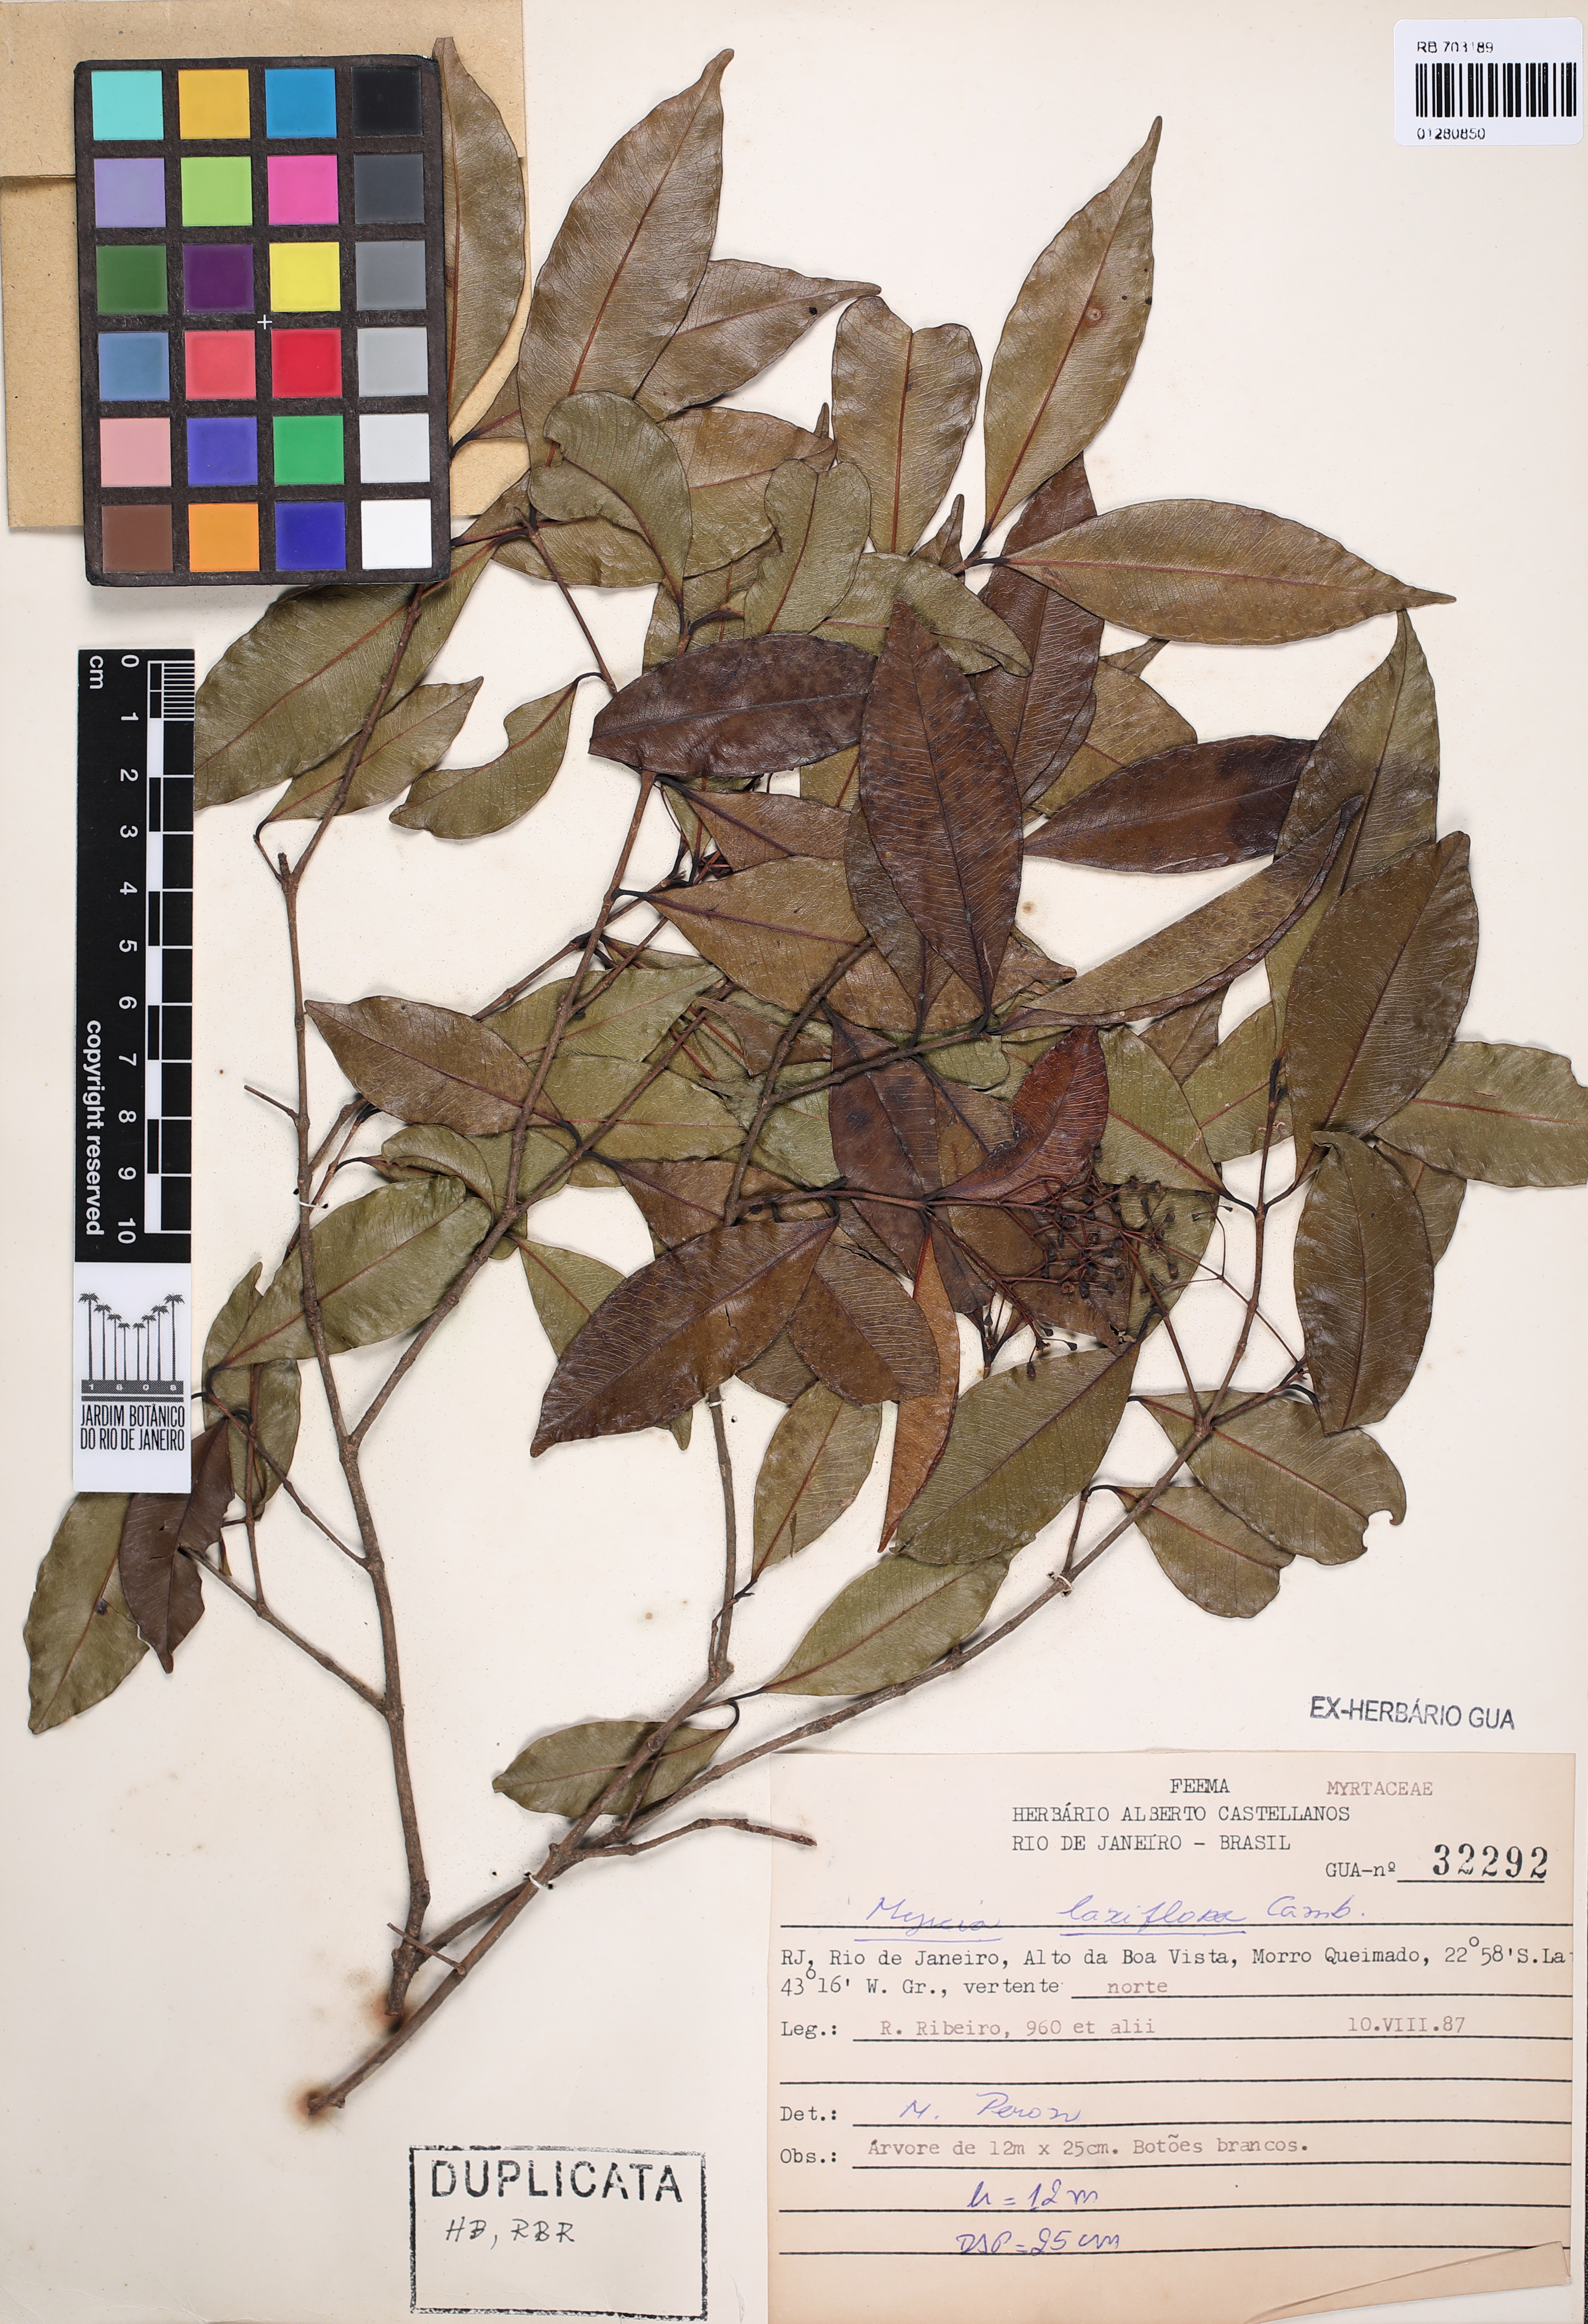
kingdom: Plantae
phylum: Tracheophyta
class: Magnoliopsida
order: Myrtales
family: Myrtaceae
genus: Myrcia
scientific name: Myrcia laxiflora
